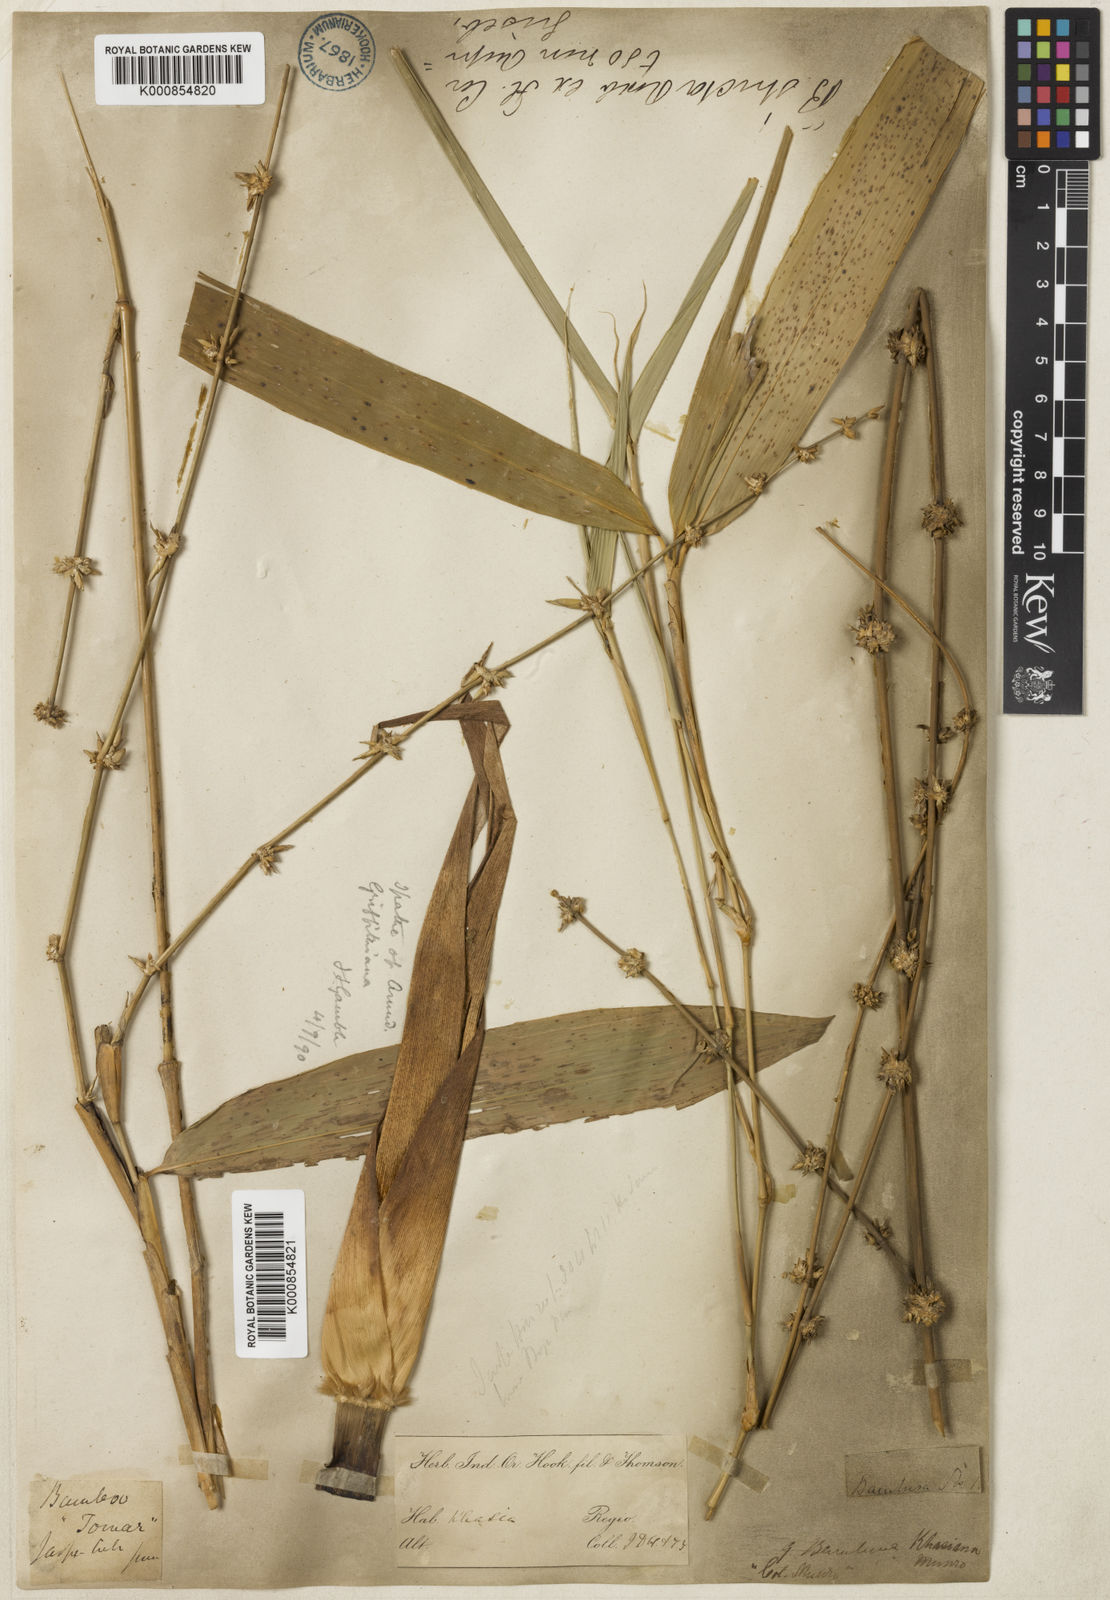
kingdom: Plantae
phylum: Tracheophyta
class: Liliopsida
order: Poales
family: Poaceae
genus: Bambusa
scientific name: Bambusa khasiana
